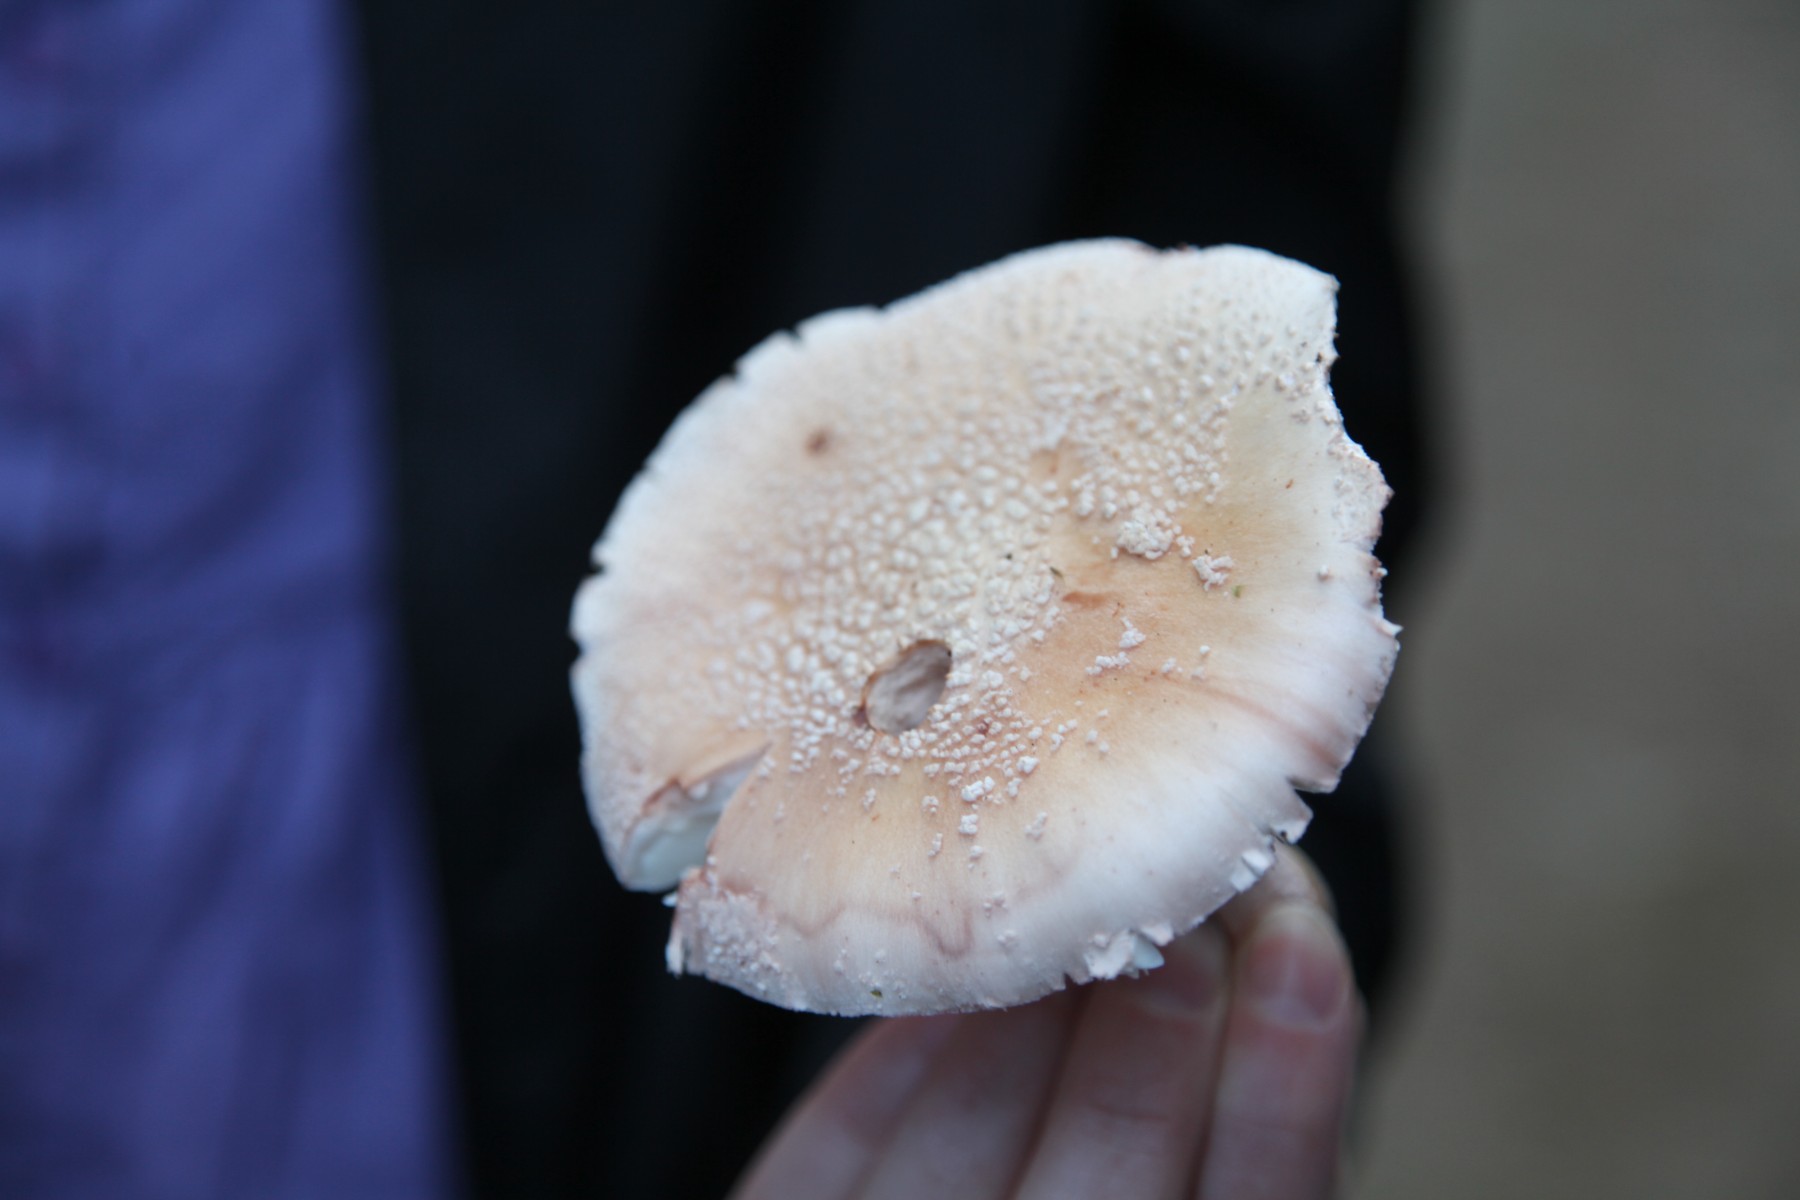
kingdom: Fungi
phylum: Basidiomycota
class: Agaricomycetes
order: Agaricales
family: Amanitaceae
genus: Amanita
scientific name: Amanita rubescens
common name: rødmende fluesvamp
